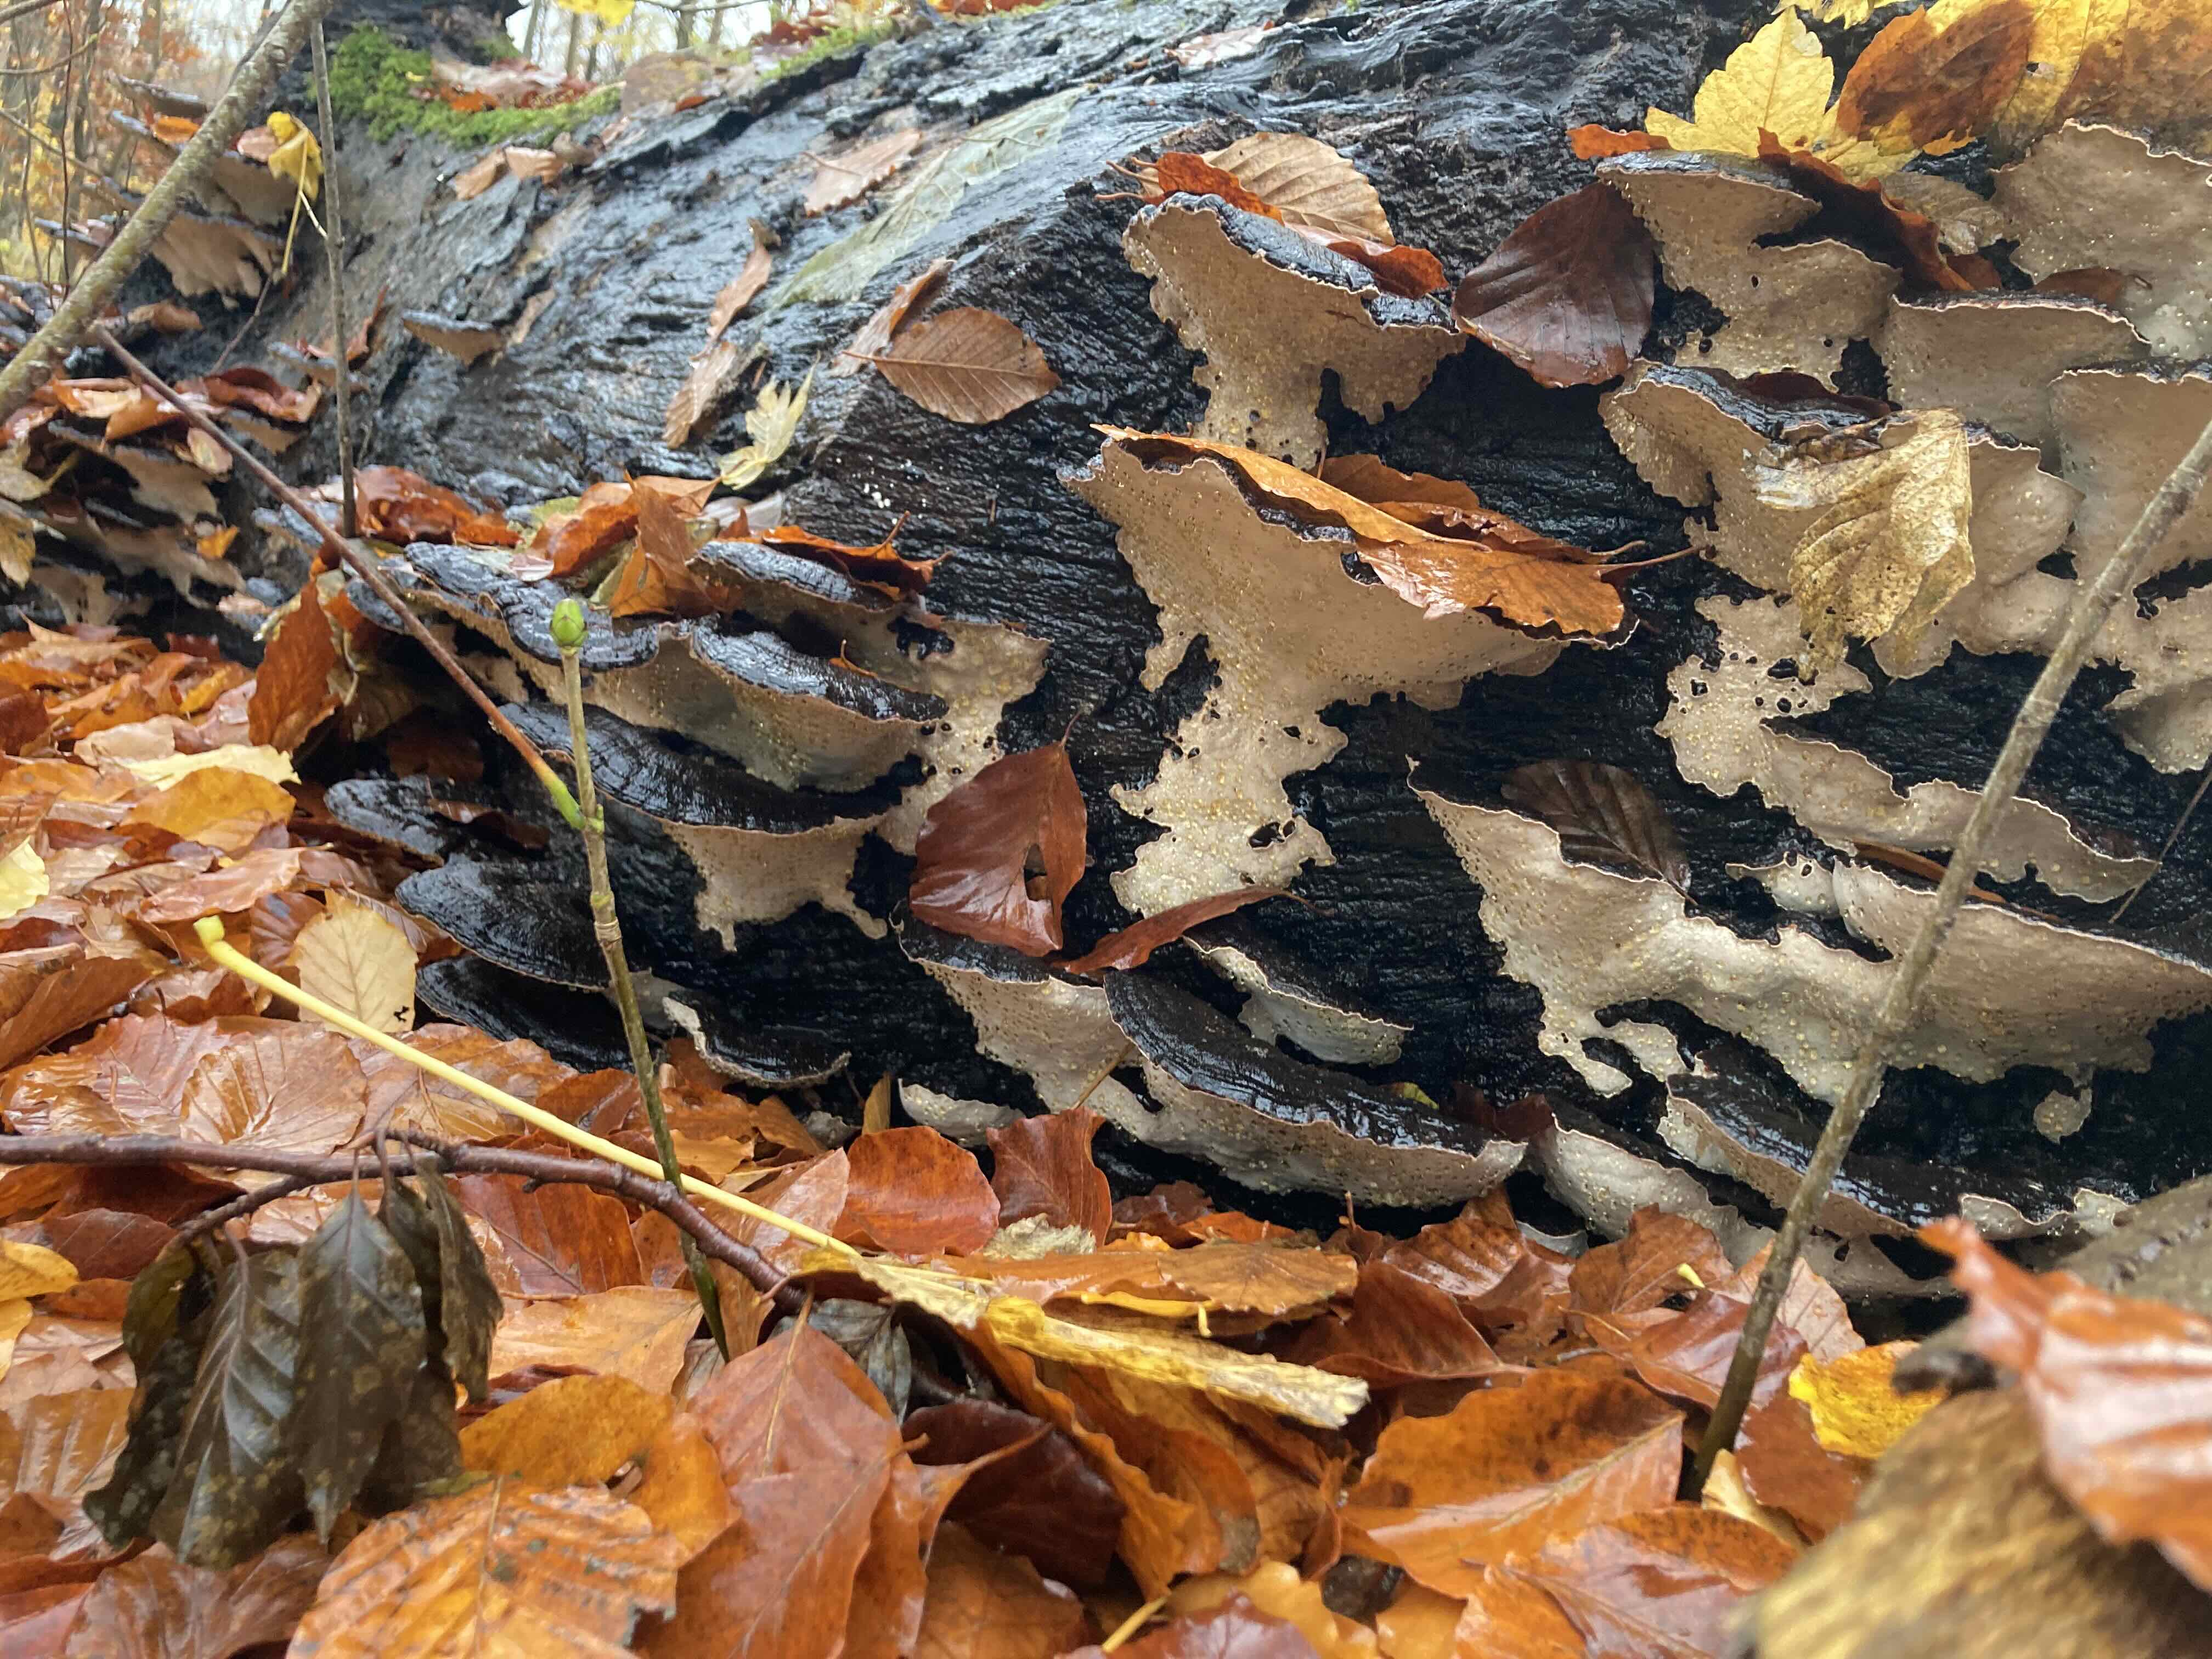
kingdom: Fungi
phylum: Basidiomycota
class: Agaricomycetes
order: Polyporales
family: Ischnodermataceae
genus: Ischnoderma
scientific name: Ischnoderma resinosum
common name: løv-tjæreporesvamp
